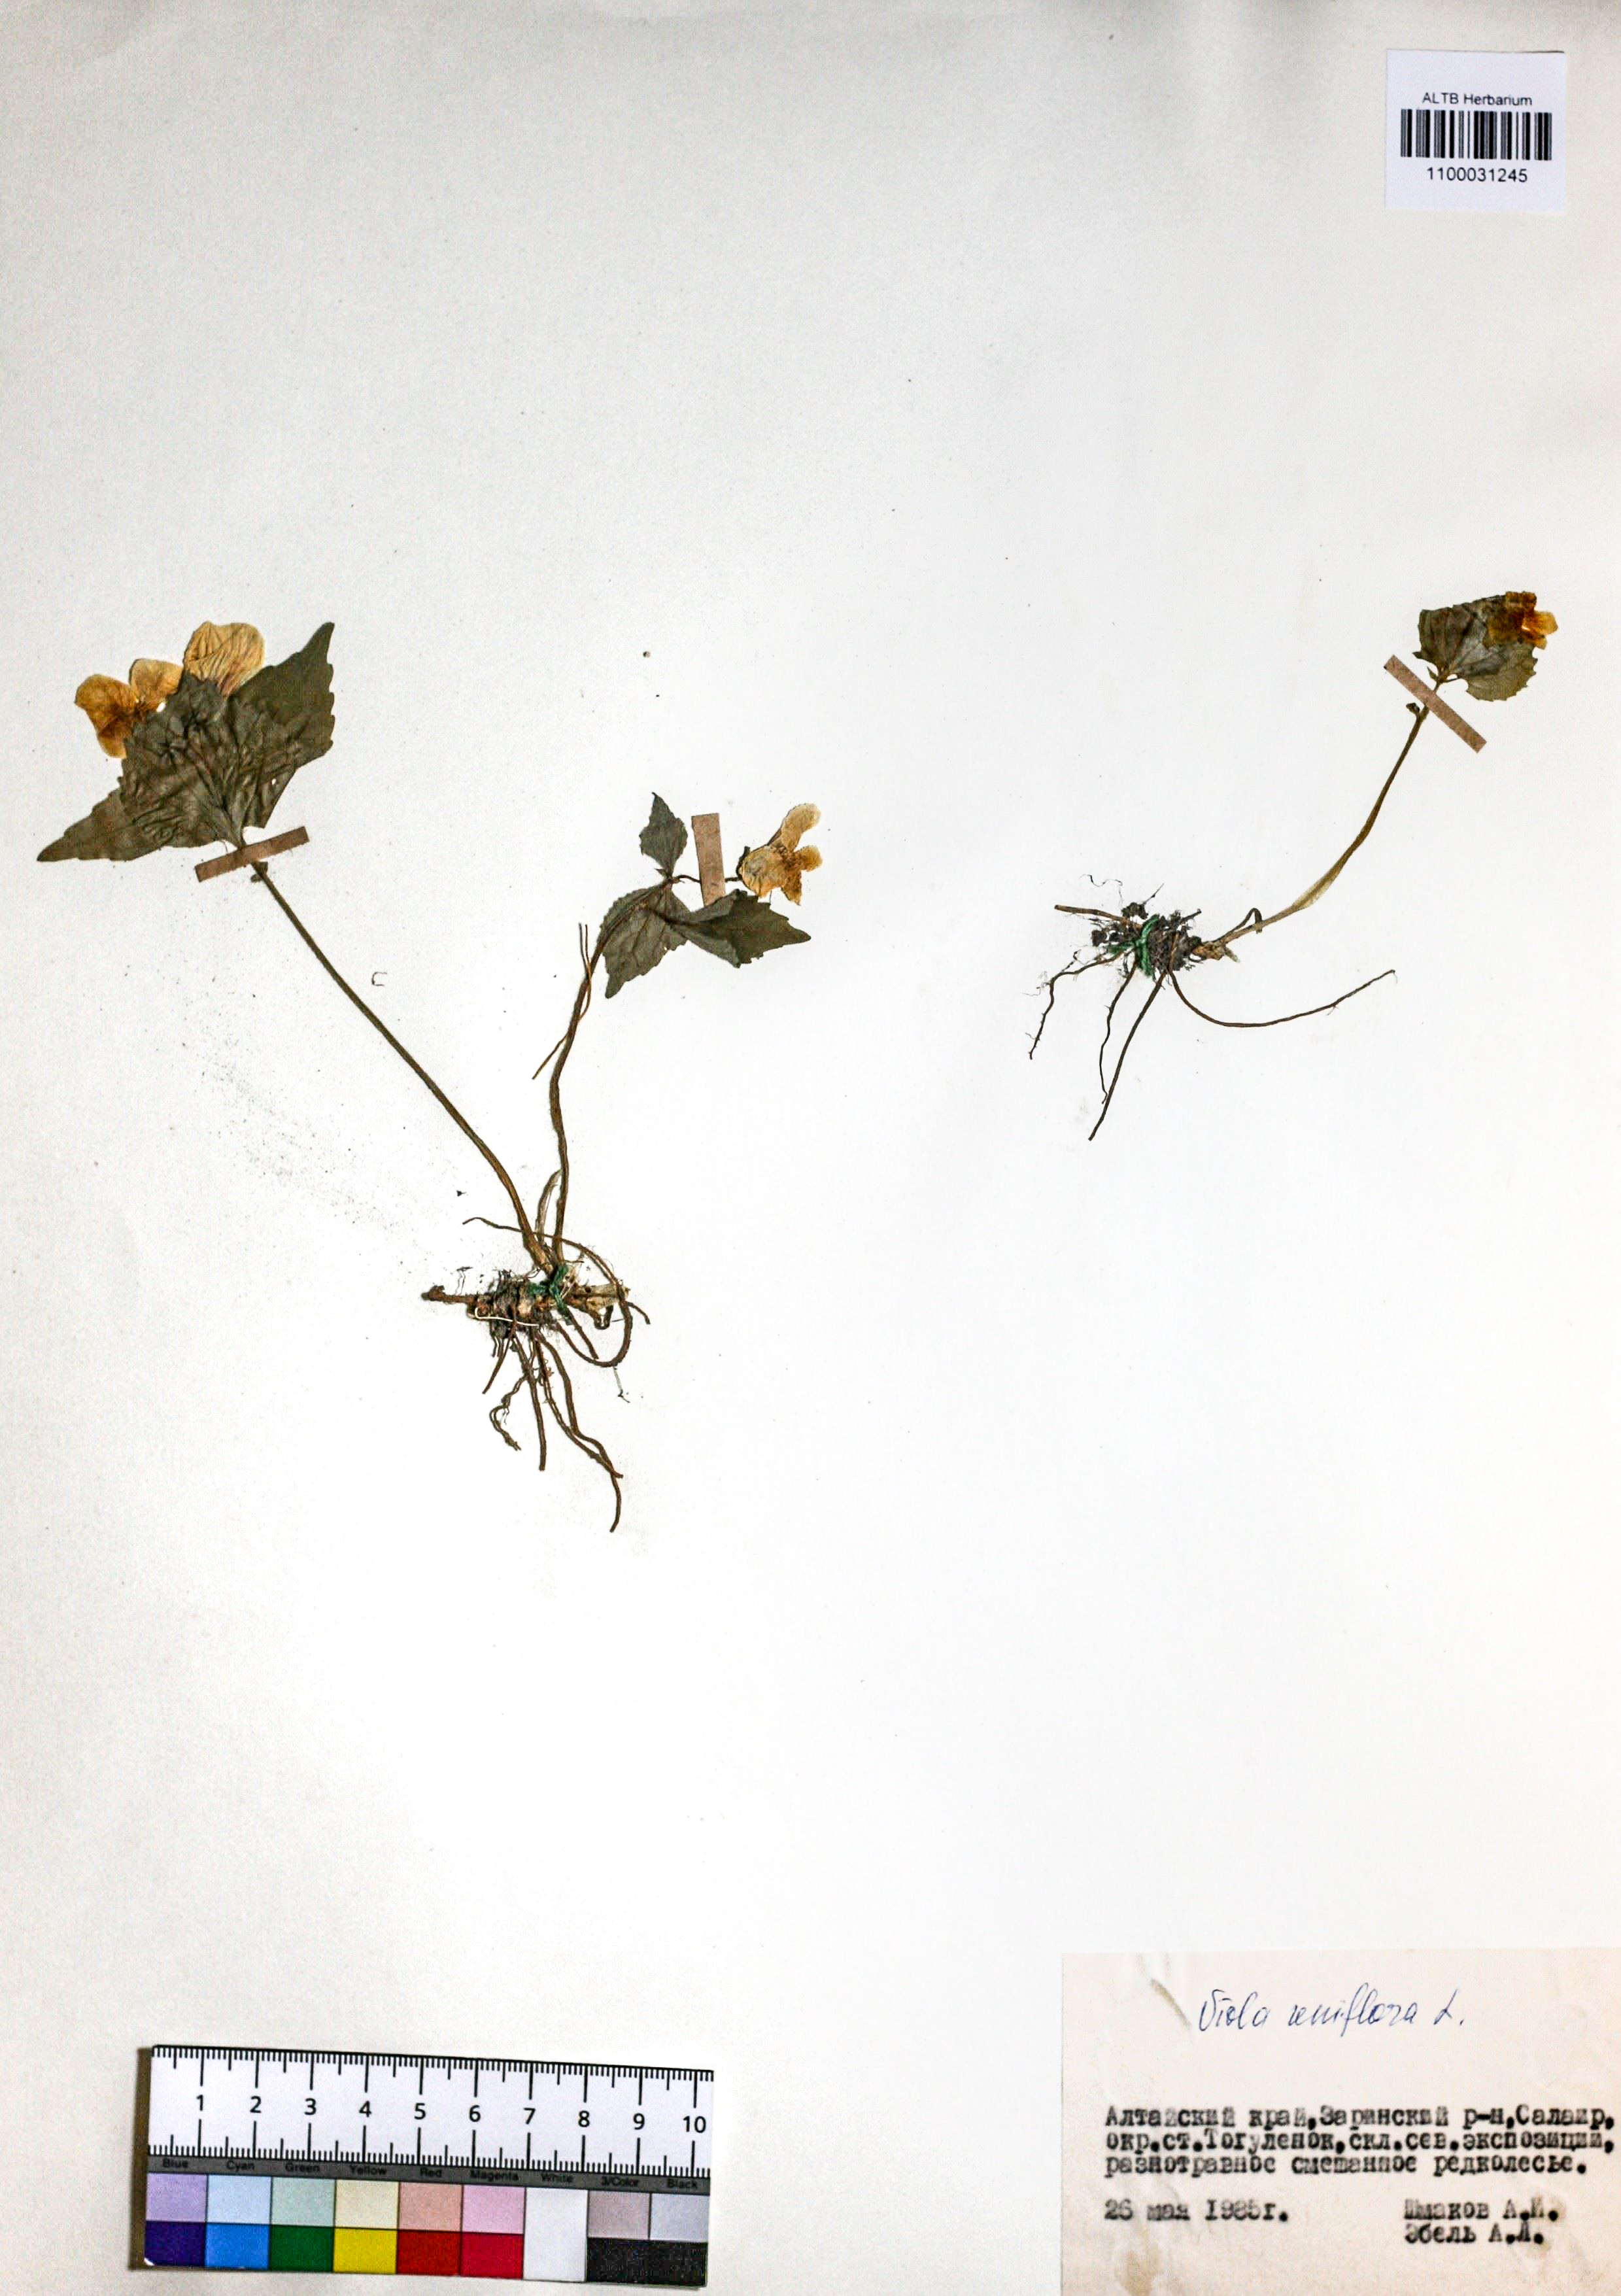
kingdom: Plantae
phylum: Tracheophyta
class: Magnoliopsida
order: Malpighiales
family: Violaceae
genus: Viola
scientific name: Viola uniflora
